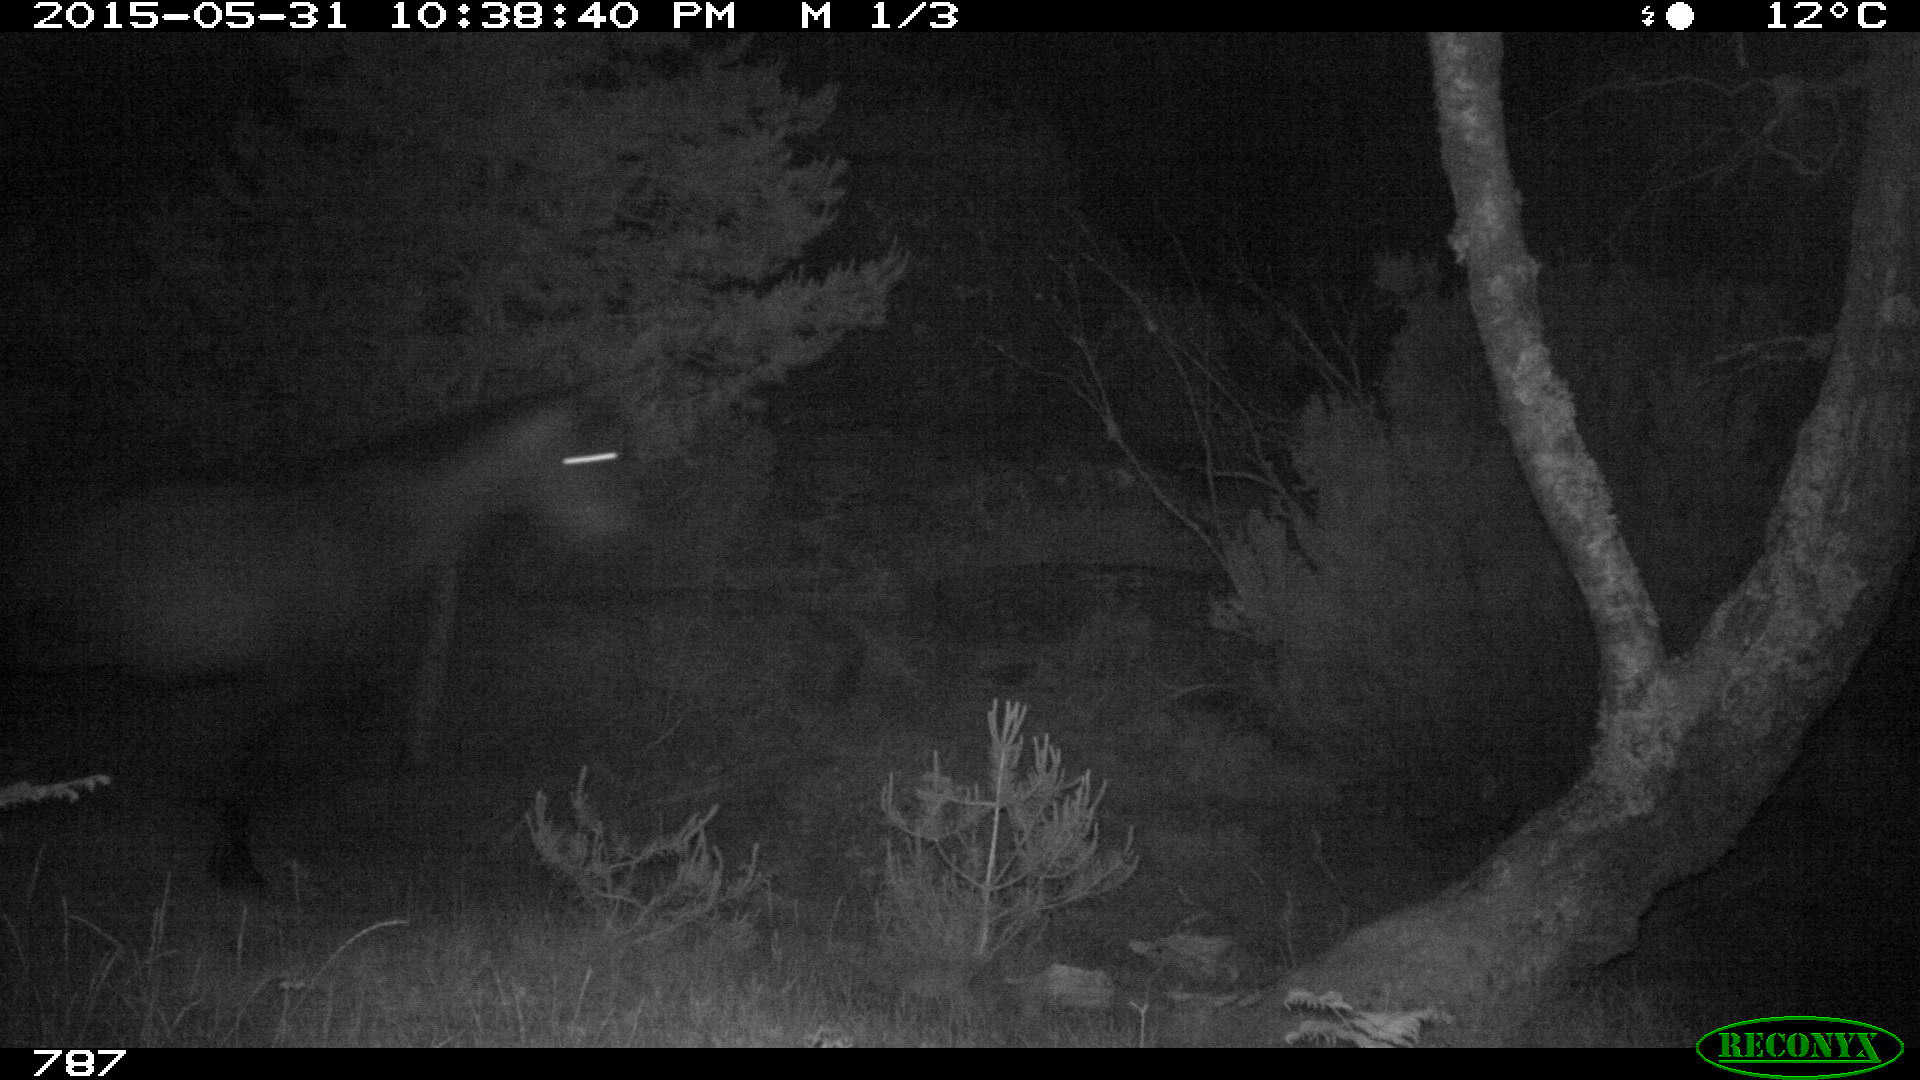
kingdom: Animalia
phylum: Chordata
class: Mammalia
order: Perissodactyla
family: Equidae
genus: Equus
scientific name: Equus caballus
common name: Horse
